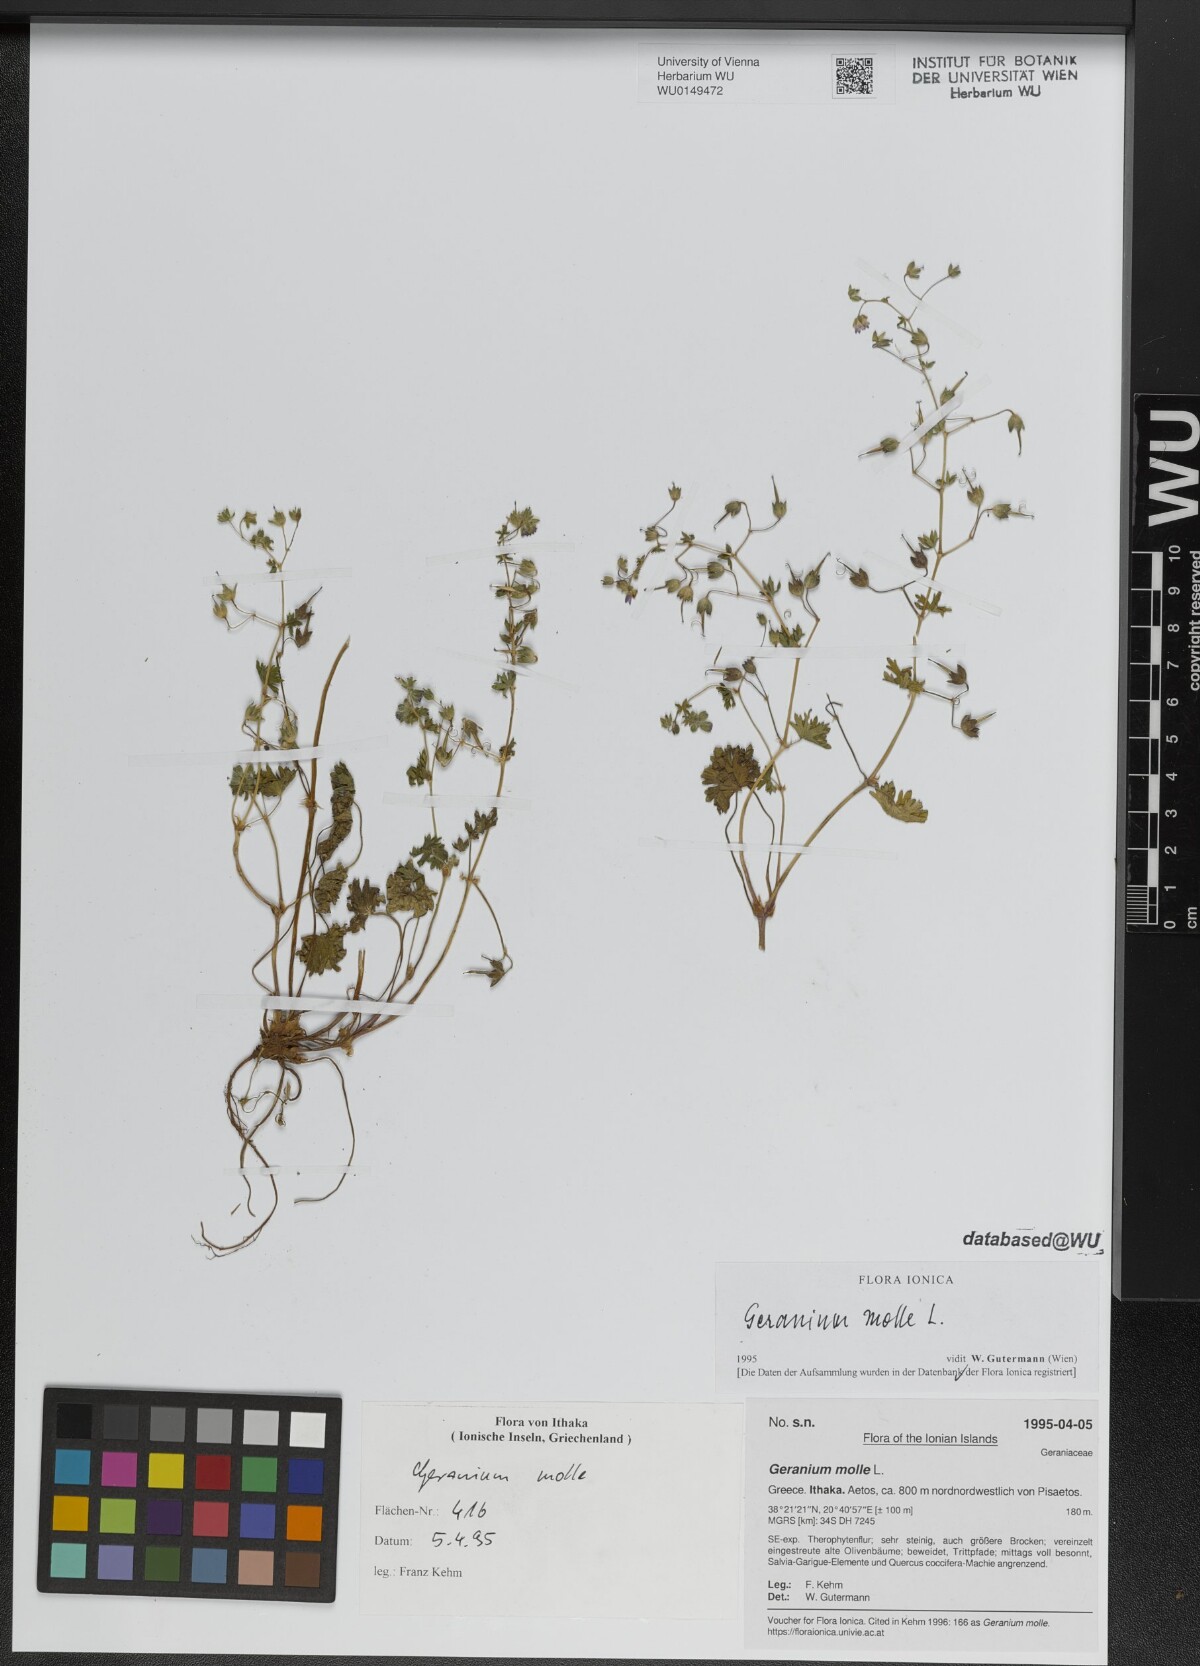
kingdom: Plantae
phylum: Tracheophyta
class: Magnoliopsida
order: Geraniales
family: Geraniaceae
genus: Geranium
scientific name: Geranium molle
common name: Dove's-foot crane's-bill
